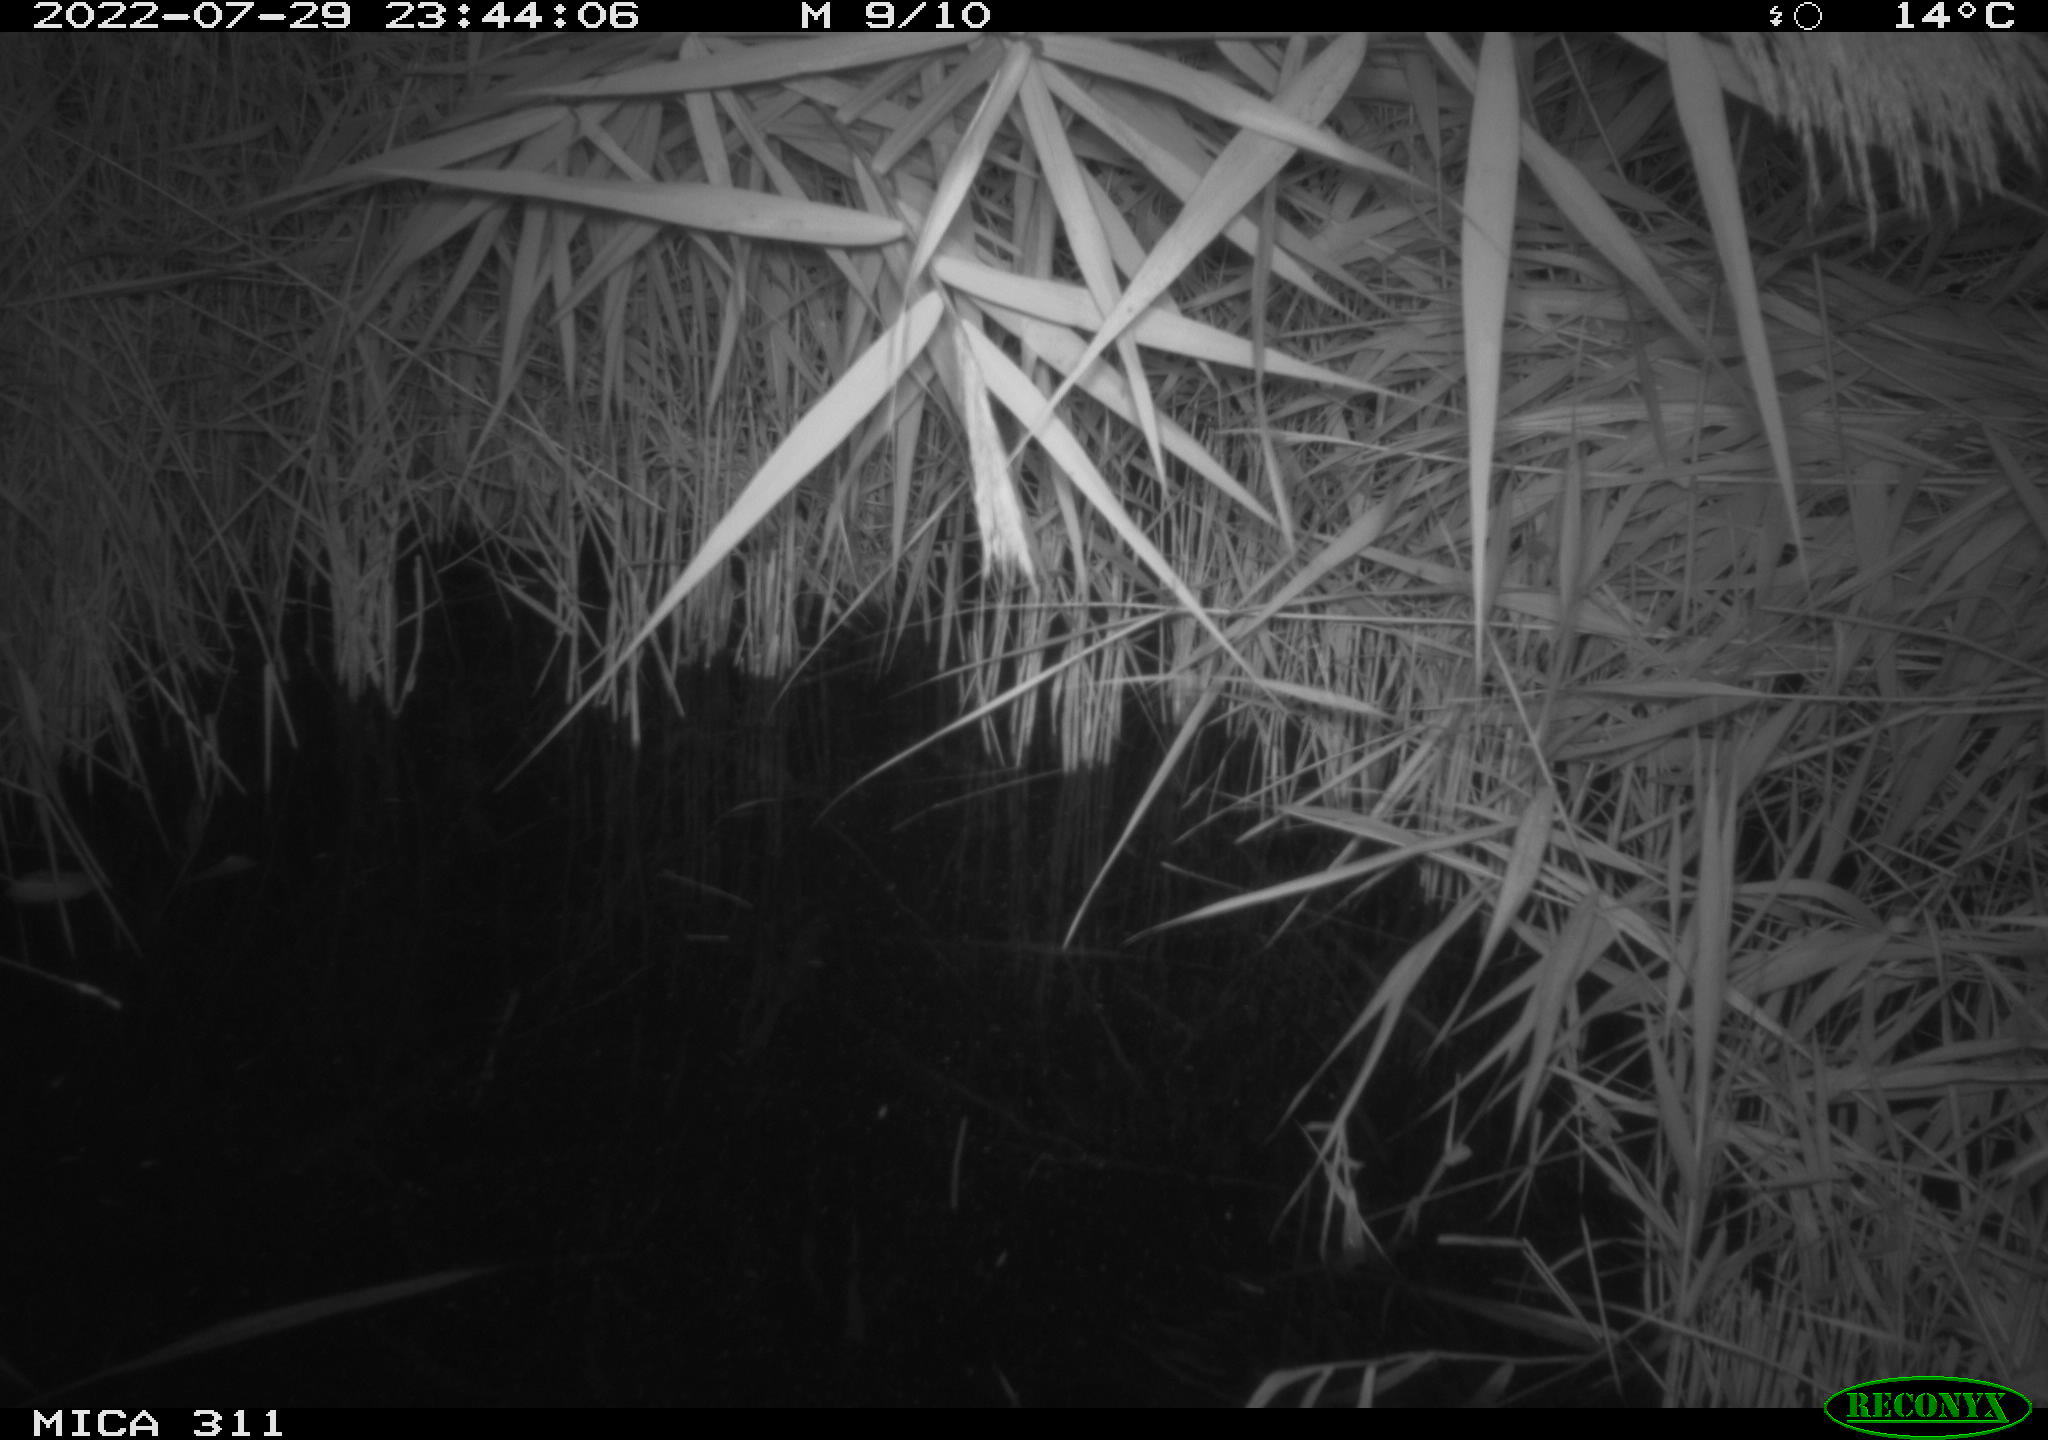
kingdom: Animalia
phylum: Chordata
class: Mammalia
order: Rodentia
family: Muridae
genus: Rattus
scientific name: Rattus norvegicus
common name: Brown rat
